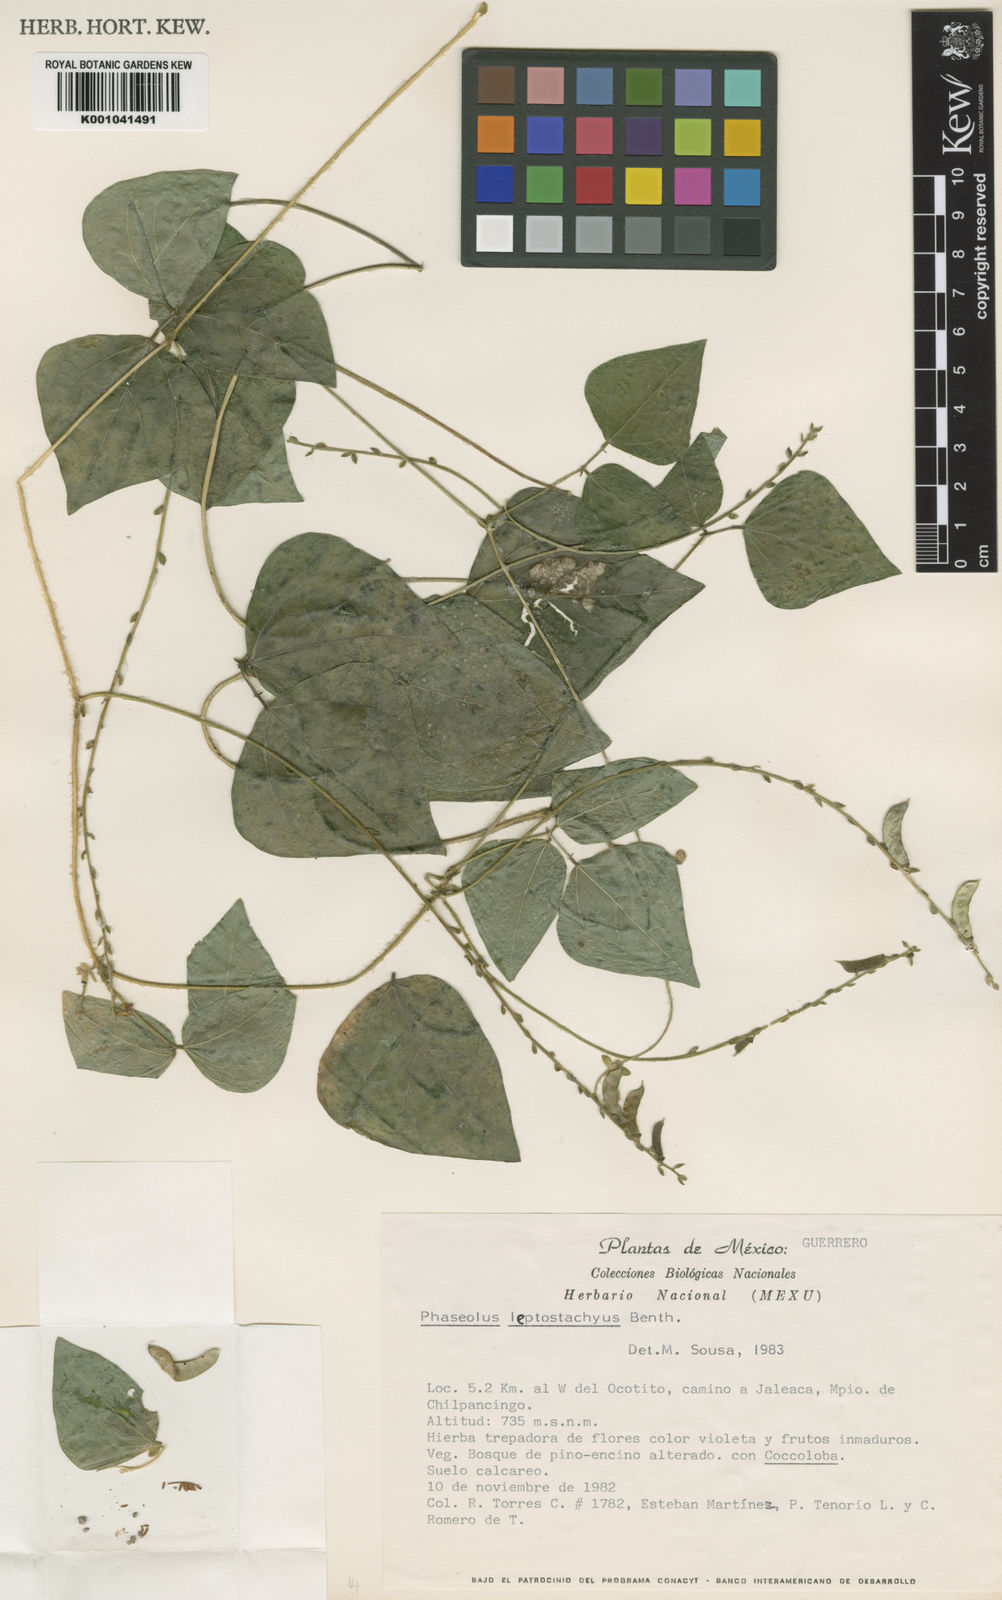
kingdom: Plantae
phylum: Tracheophyta
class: Magnoliopsida
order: Fabales
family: Fabaceae
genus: Phaseolus
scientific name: Phaseolus
